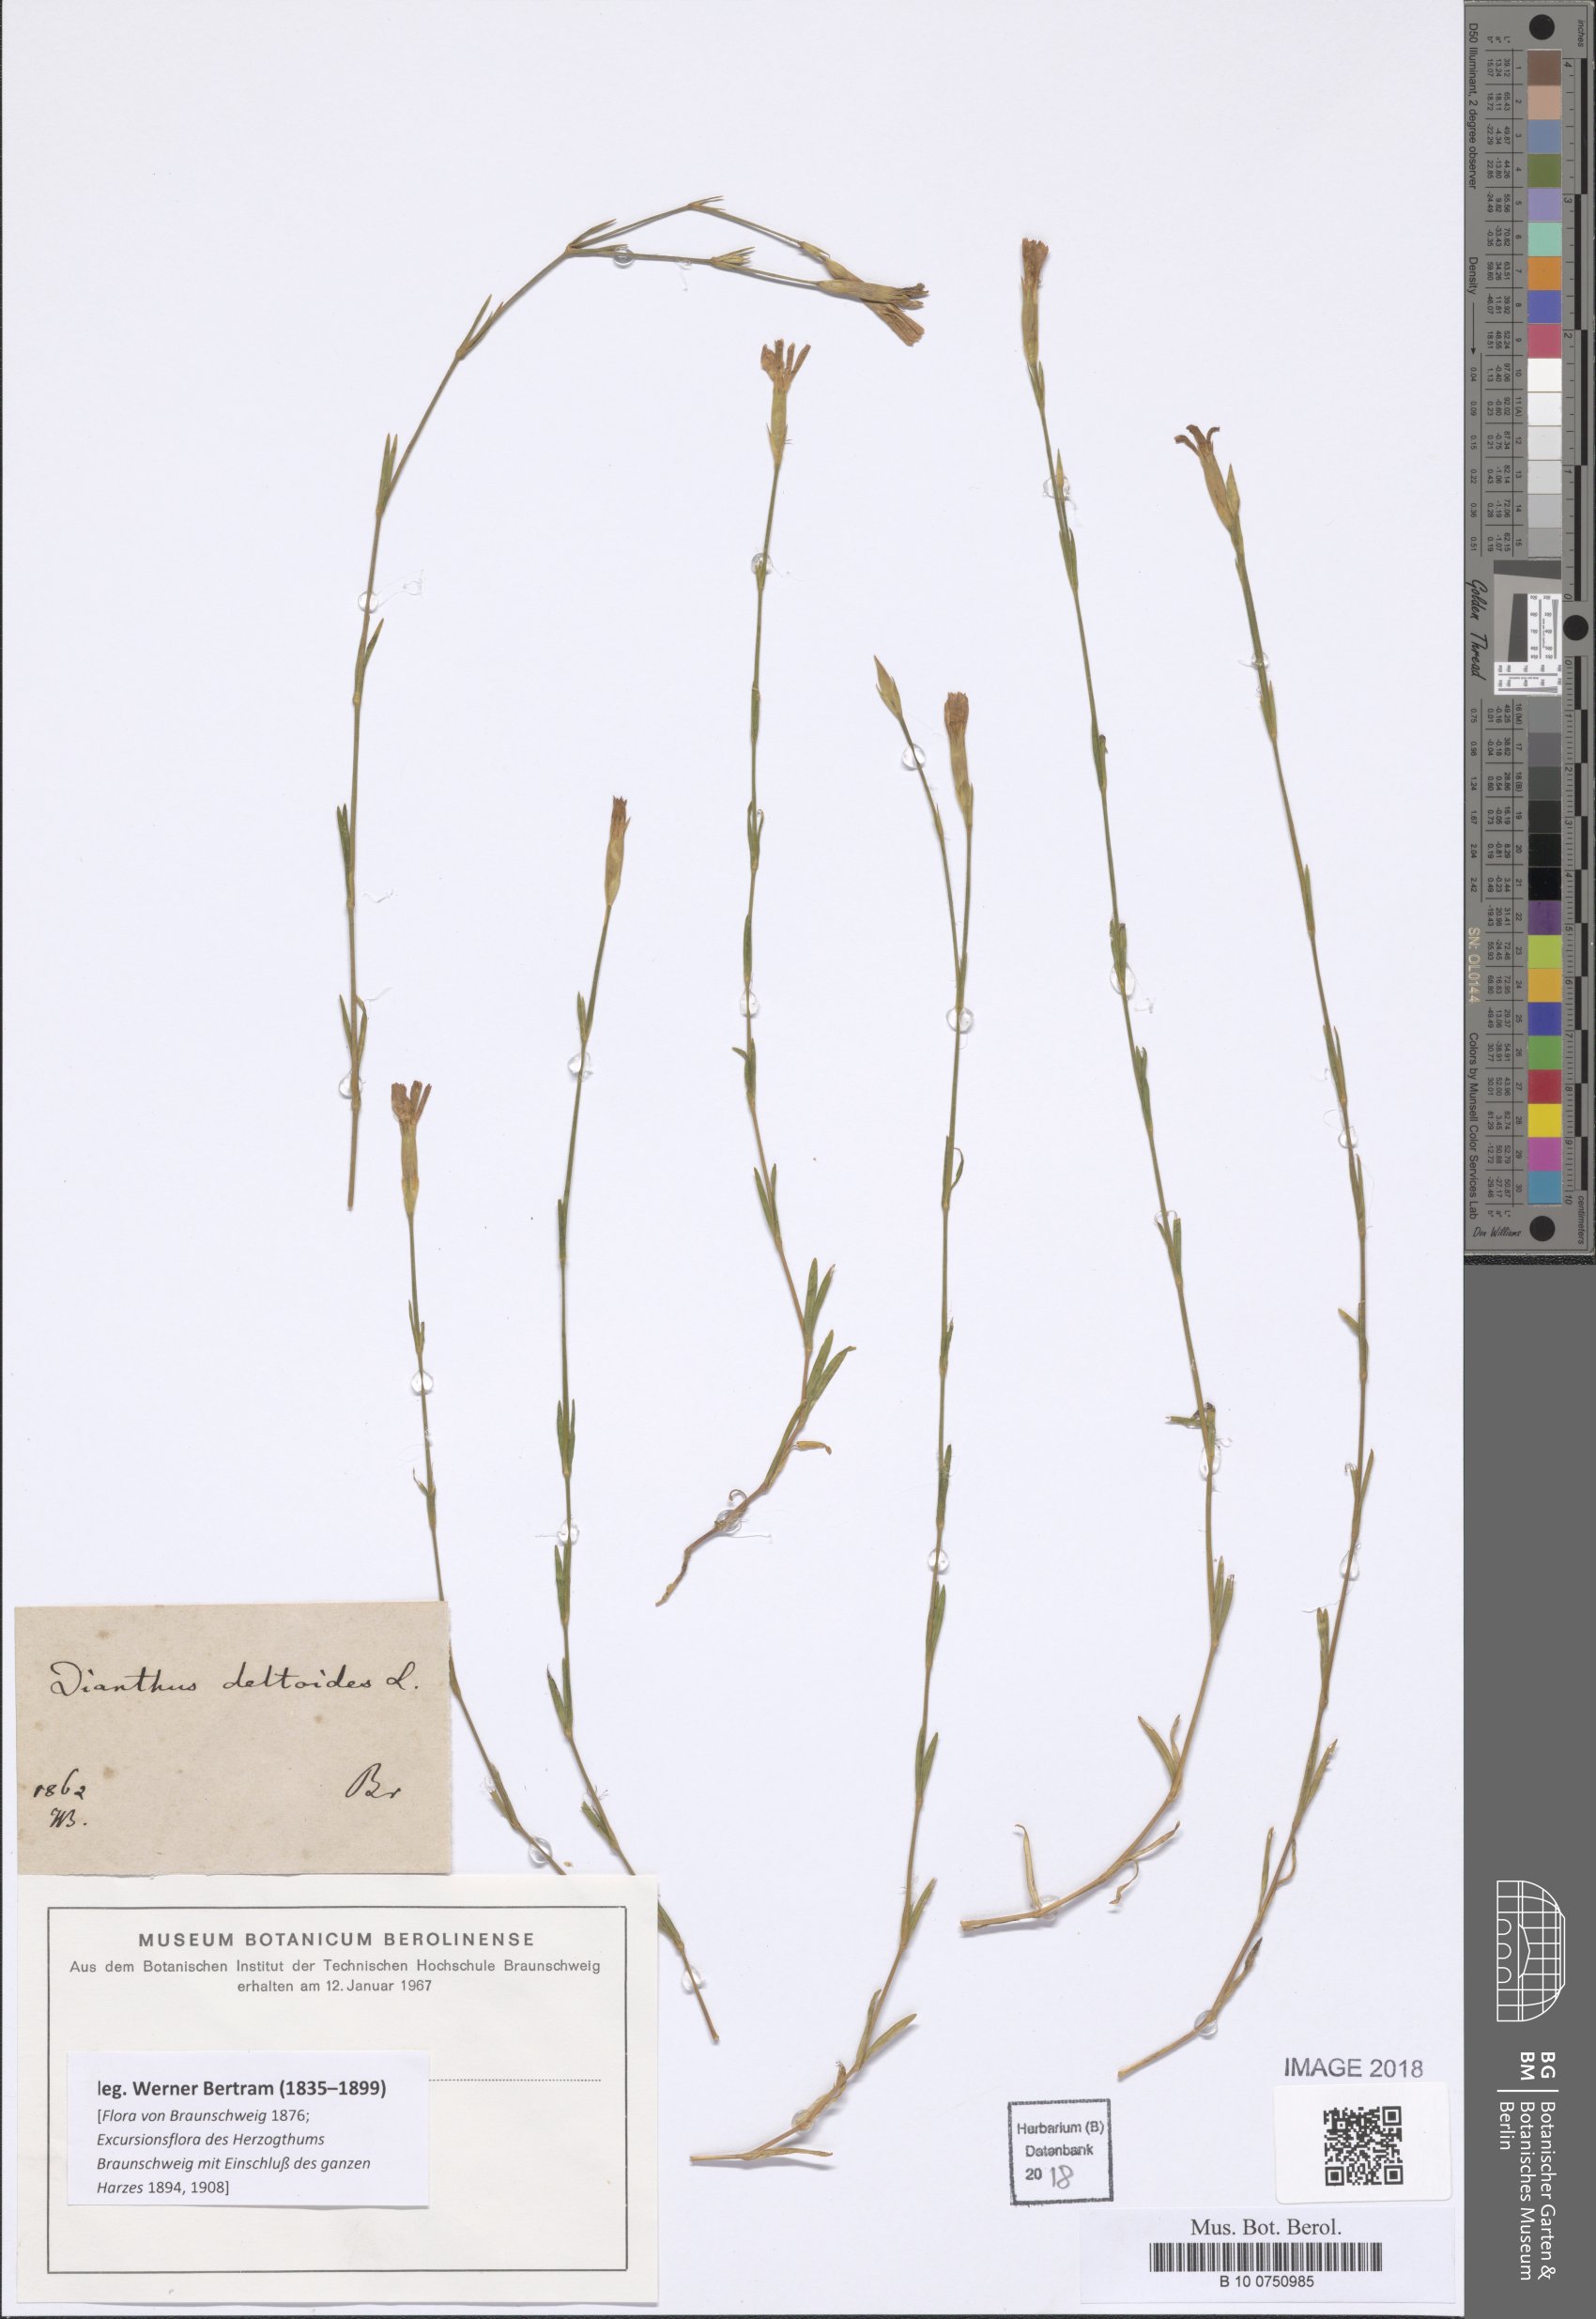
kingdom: Plantae
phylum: Tracheophyta
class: Magnoliopsida
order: Caryophyllales
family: Caryophyllaceae
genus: Dianthus
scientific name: Dianthus deltoides
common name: Maiden pink
